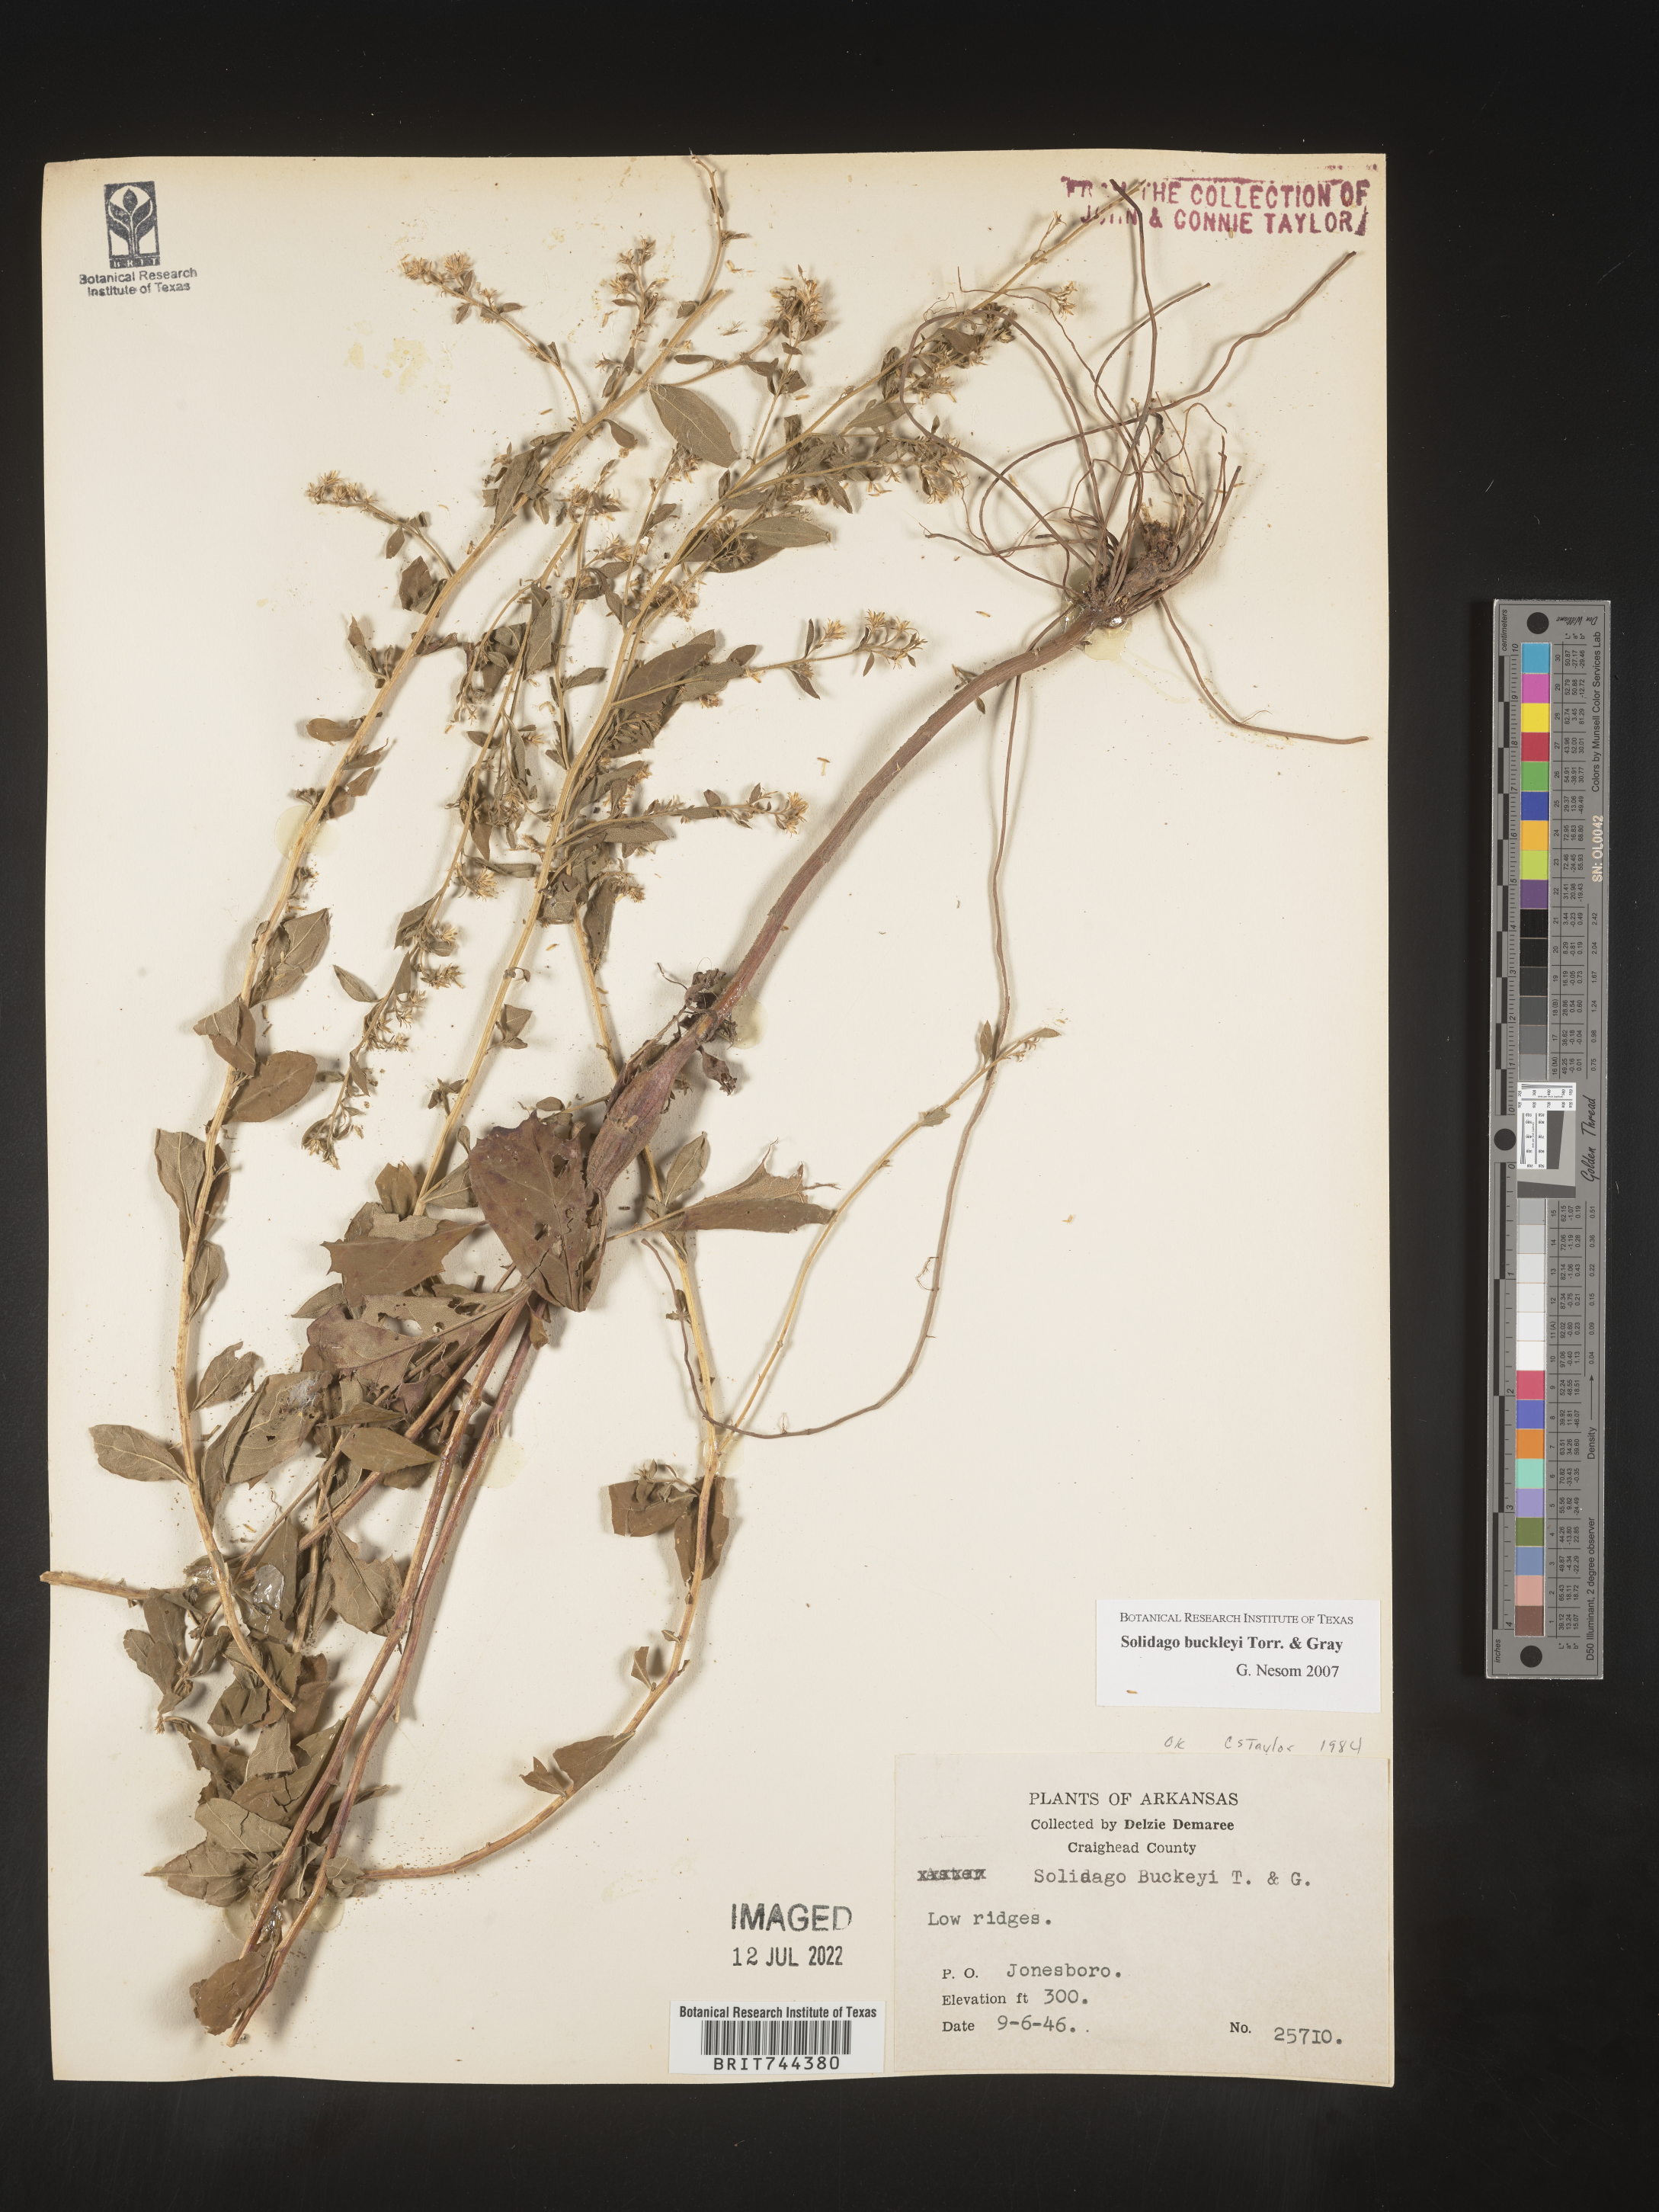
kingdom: Plantae
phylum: Tracheophyta
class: Magnoliopsida
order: Asterales
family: Asteraceae
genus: Solidago
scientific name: Solidago buckleyi
